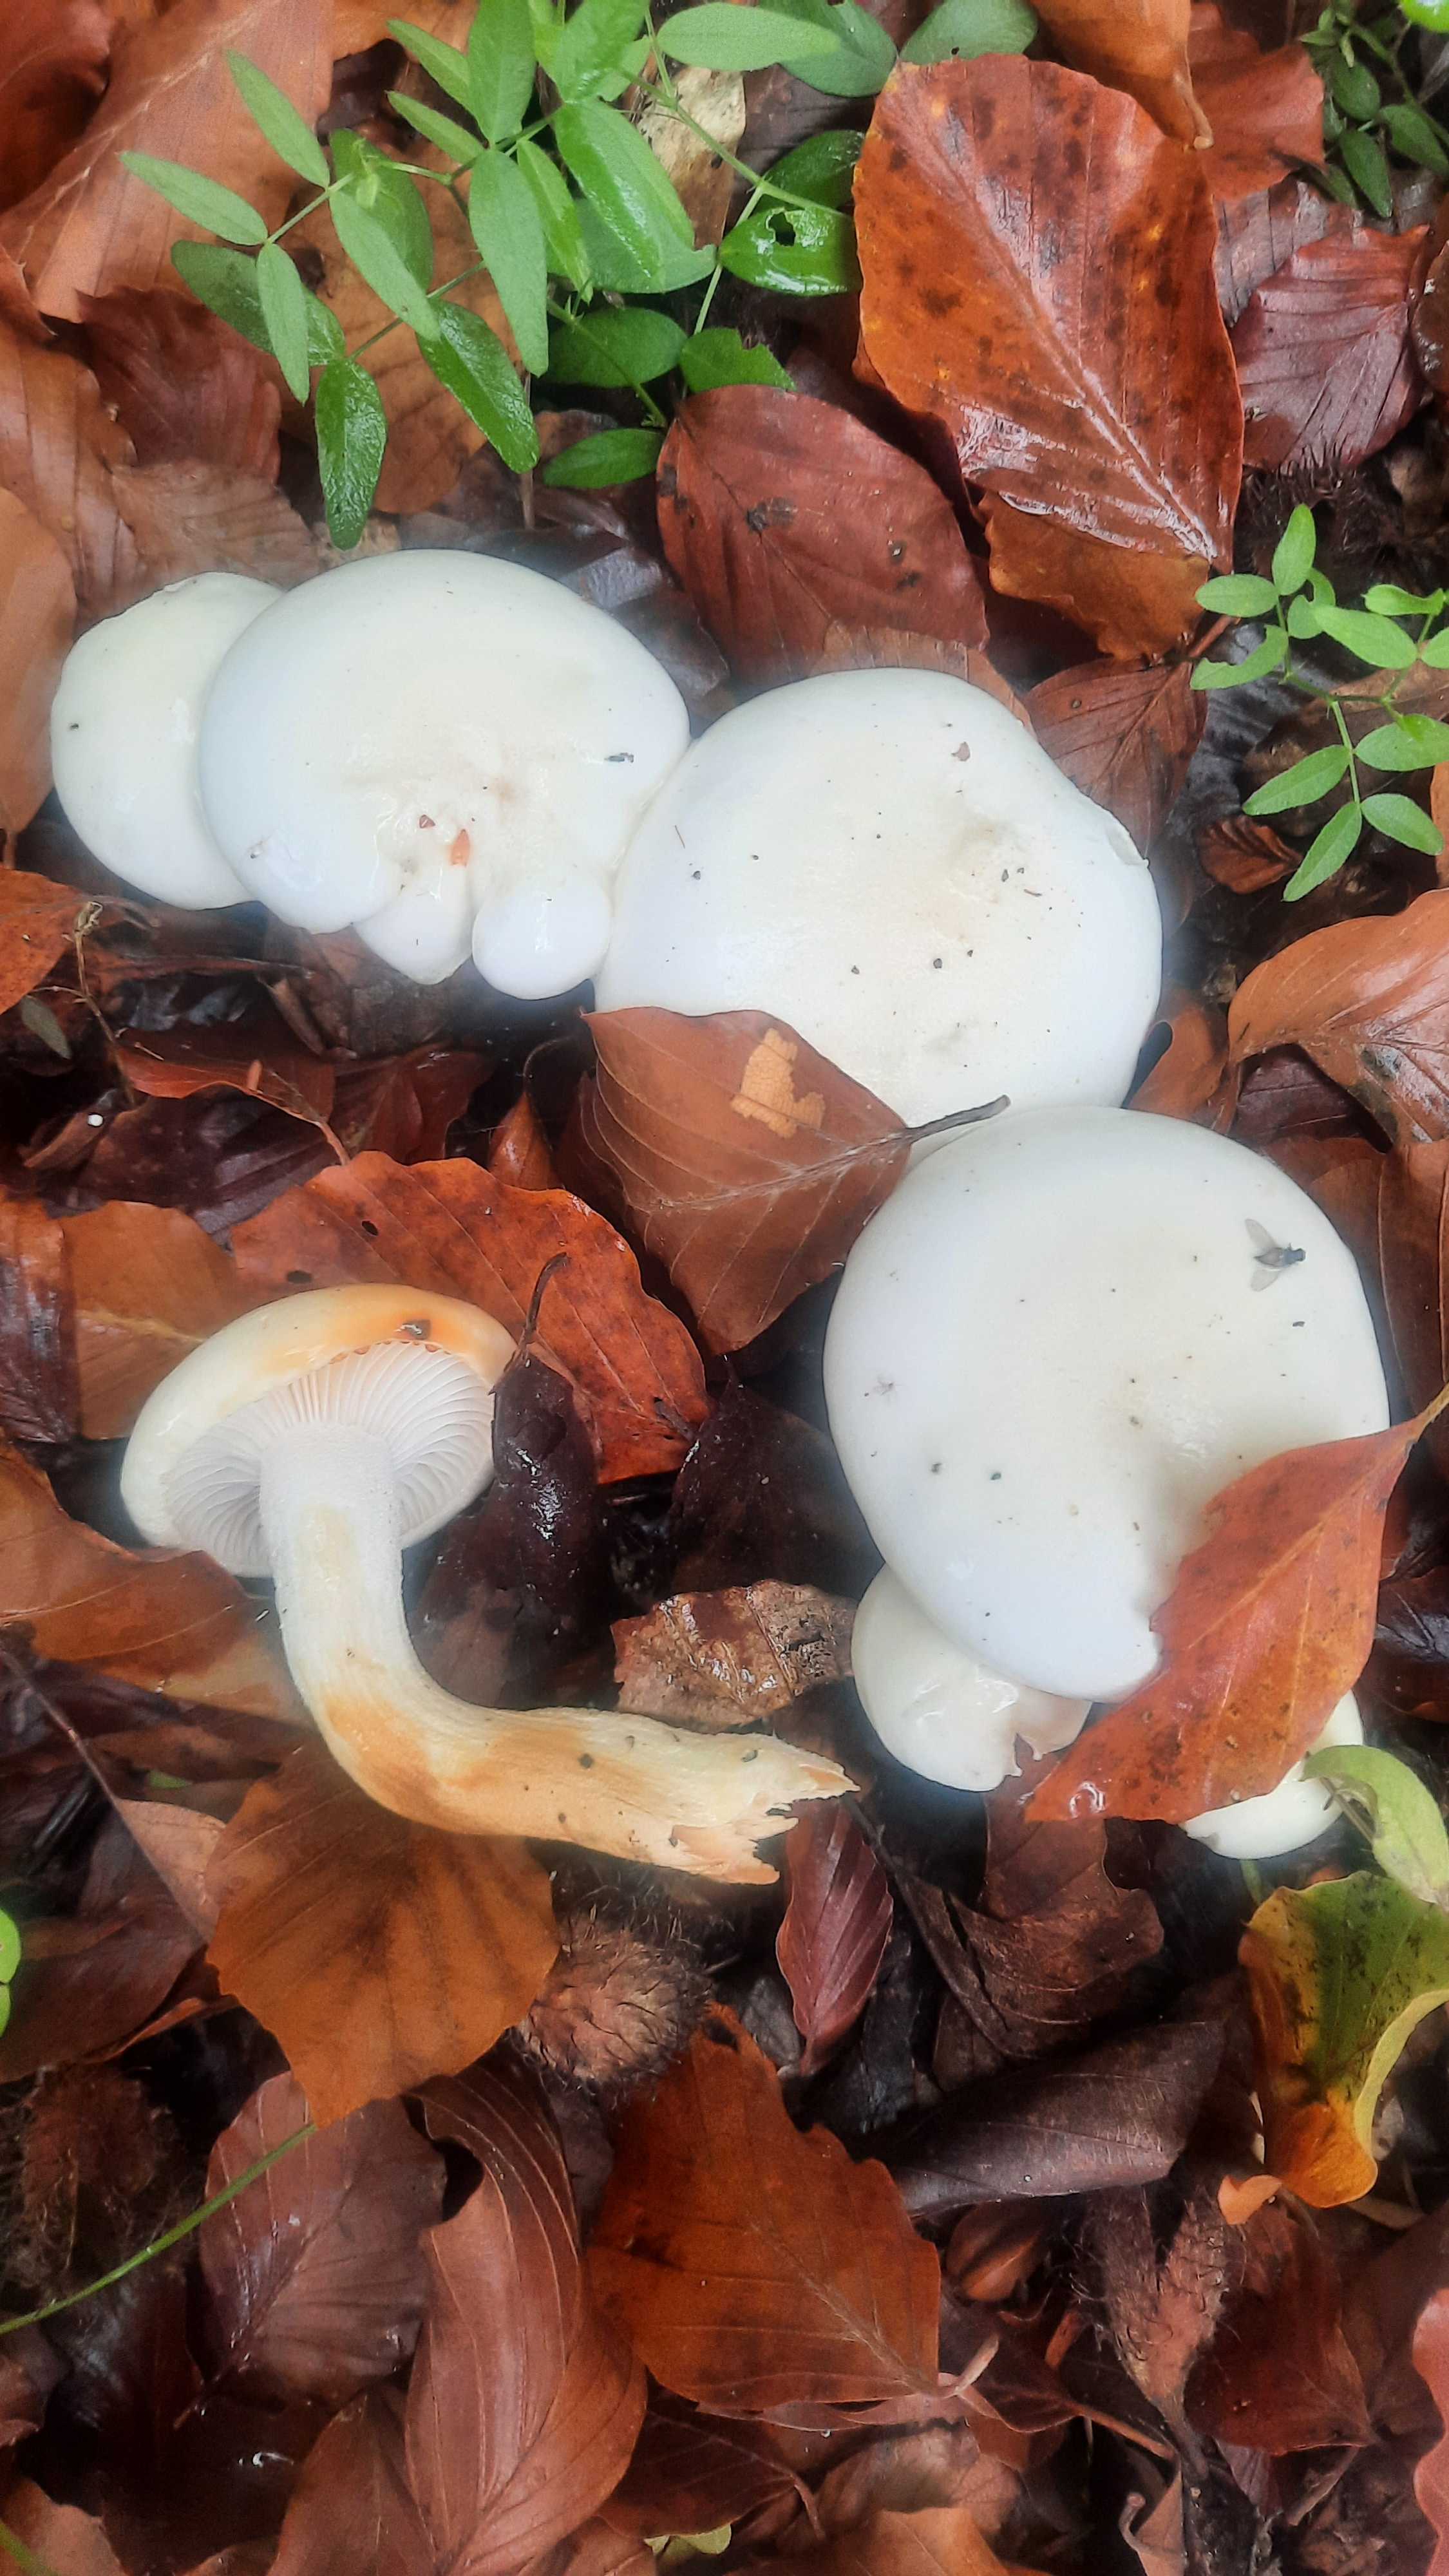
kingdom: Fungi
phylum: Basidiomycota
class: Agaricomycetes
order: Agaricales
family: Hygrophoraceae
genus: Hygrophorus
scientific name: Hygrophorus discoxanthus
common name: ildelugtende sneglehat
